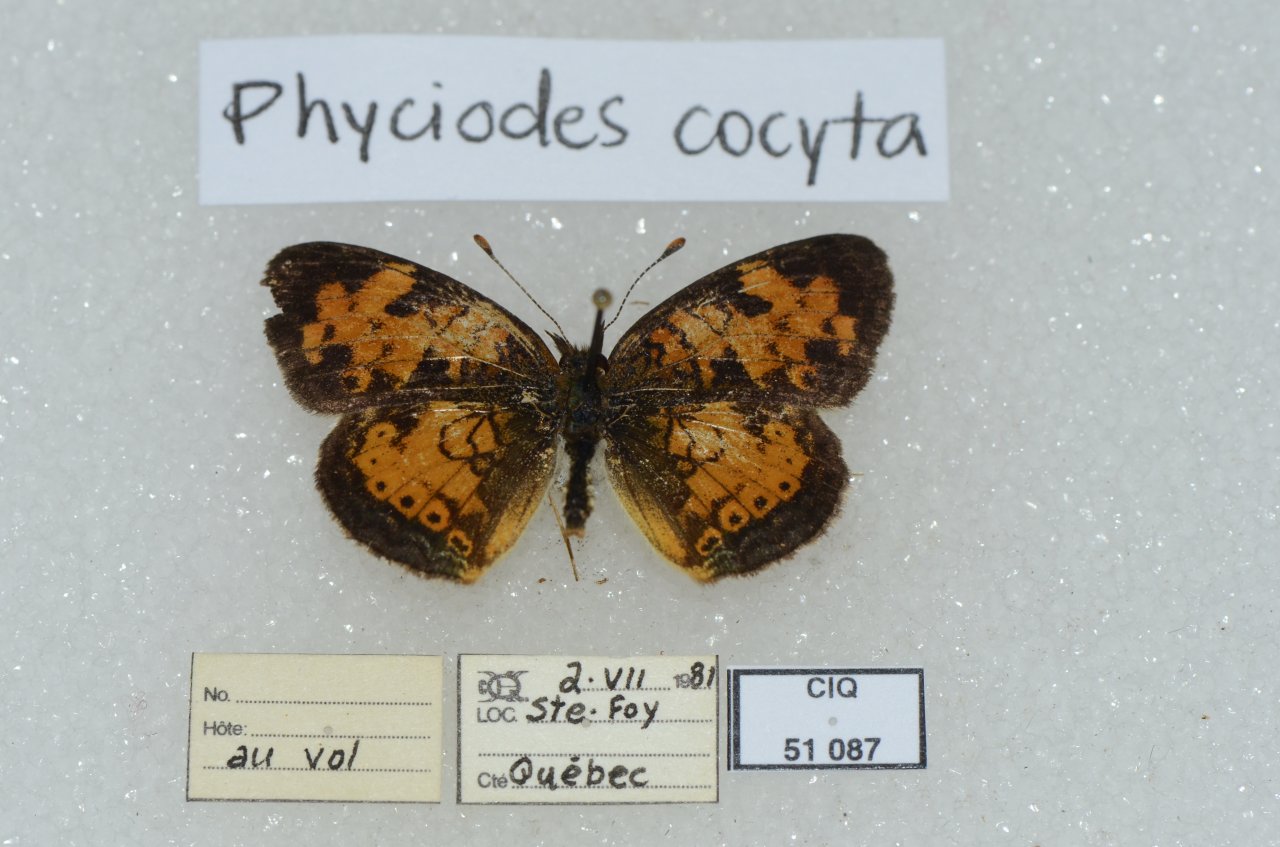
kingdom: Animalia
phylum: Arthropoda
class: Insecta
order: Lepidoptera
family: Nymphalidae
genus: Phyciodes
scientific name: Phyciodes tharos
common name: Northern Crescent
